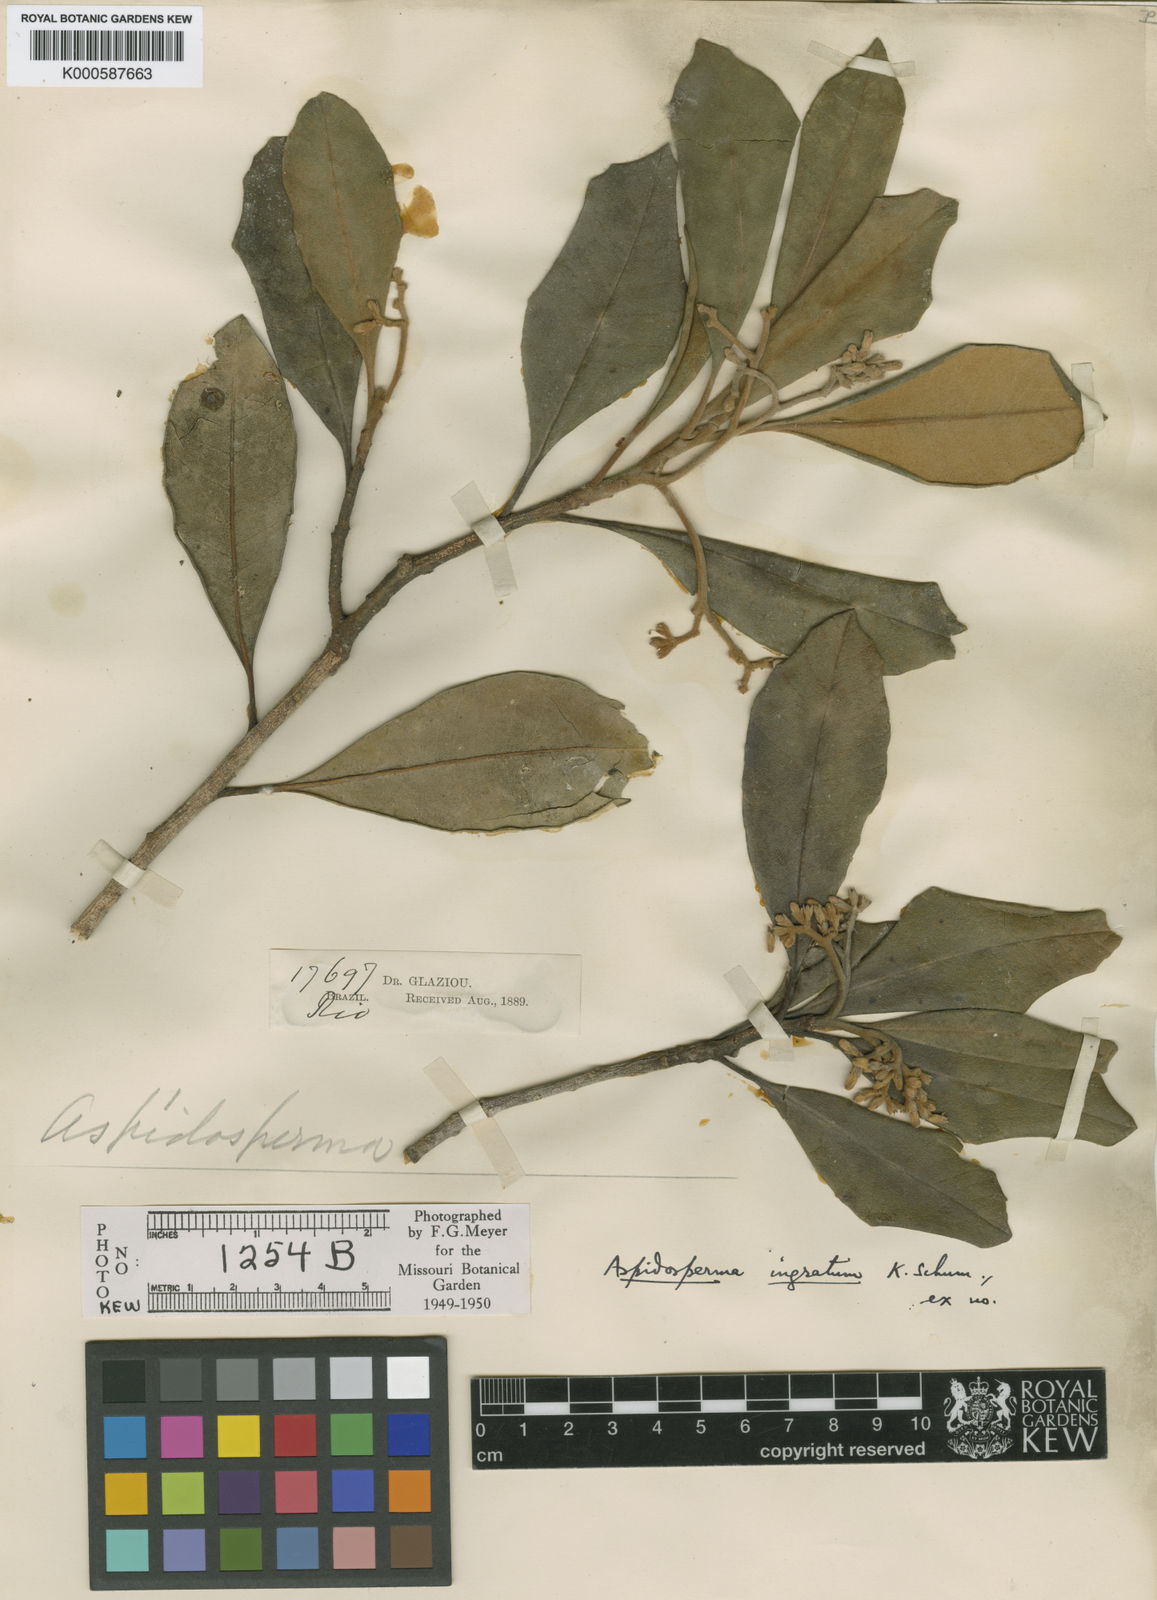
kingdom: Plantae
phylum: Tracheophyta
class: Magnoliopsida
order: Gentianales
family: Apocynaceae
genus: Aspidosperma
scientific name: Aspidosperma parvifolium
